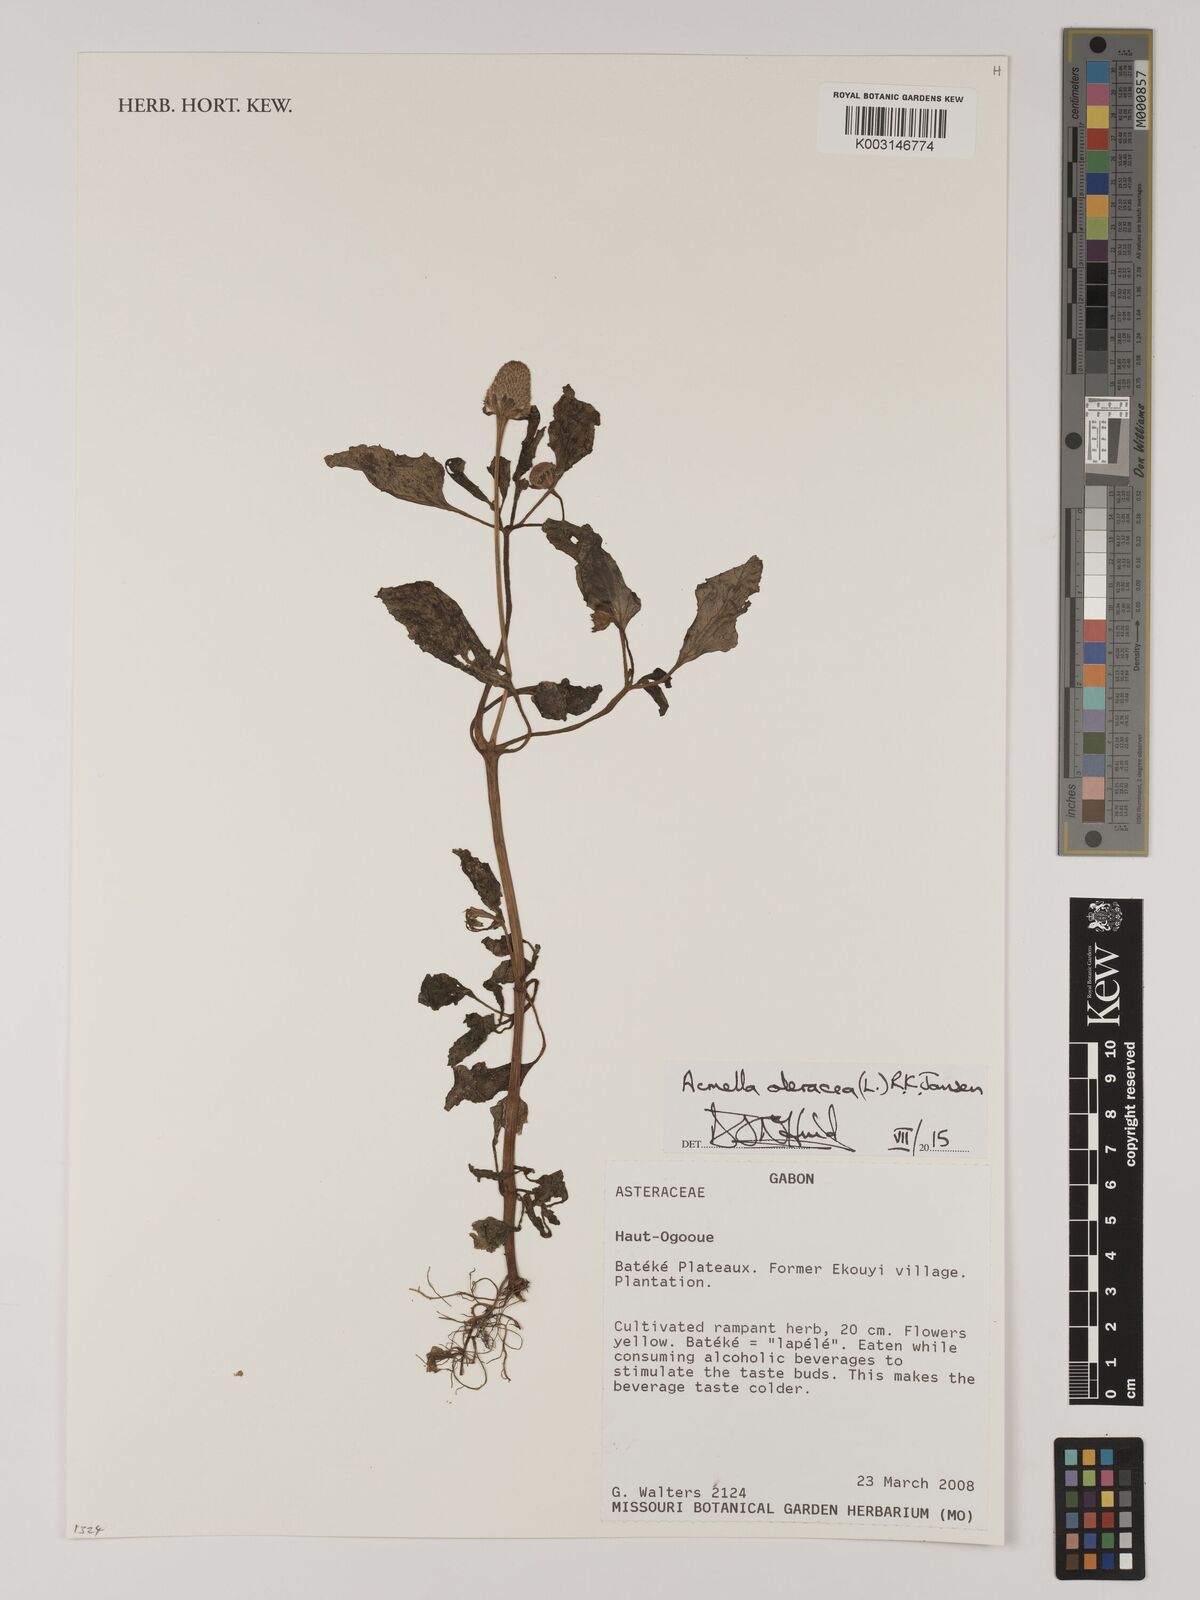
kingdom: Plantae
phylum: Tracheophyta
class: Magnoliopsida
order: Asterales
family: Asteraceae
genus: Acmella
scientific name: Acmella uliginosa
